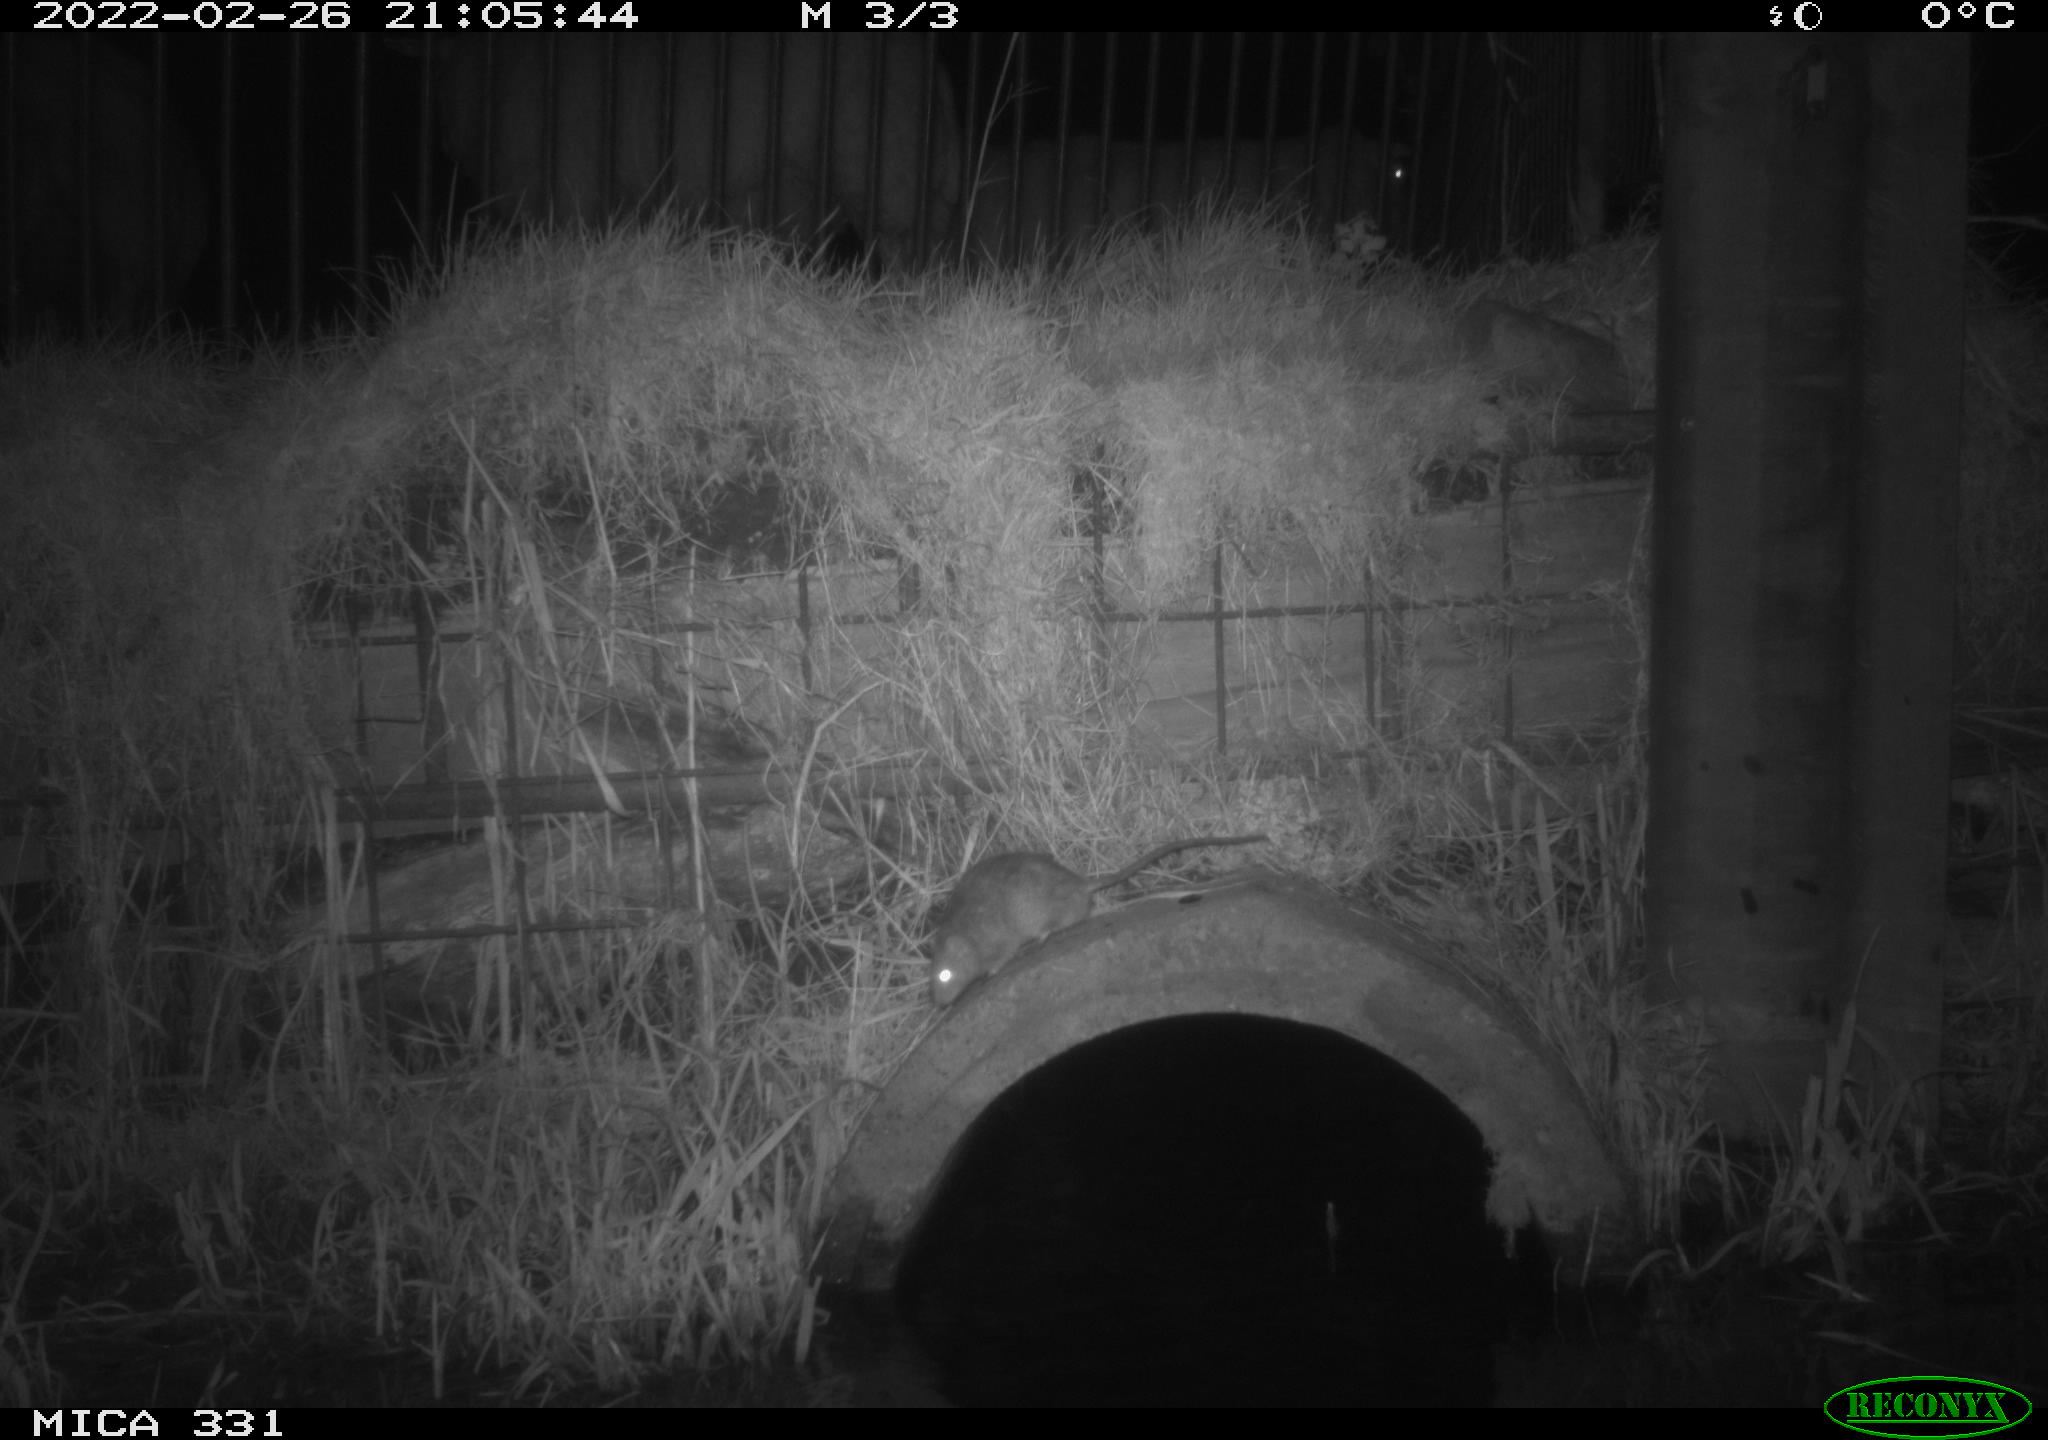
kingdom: Animalia
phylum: Chordata
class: Mammalia
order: Rodentia
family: Muridae
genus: Rattus
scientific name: Rattus norvegicus
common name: Brown rat
